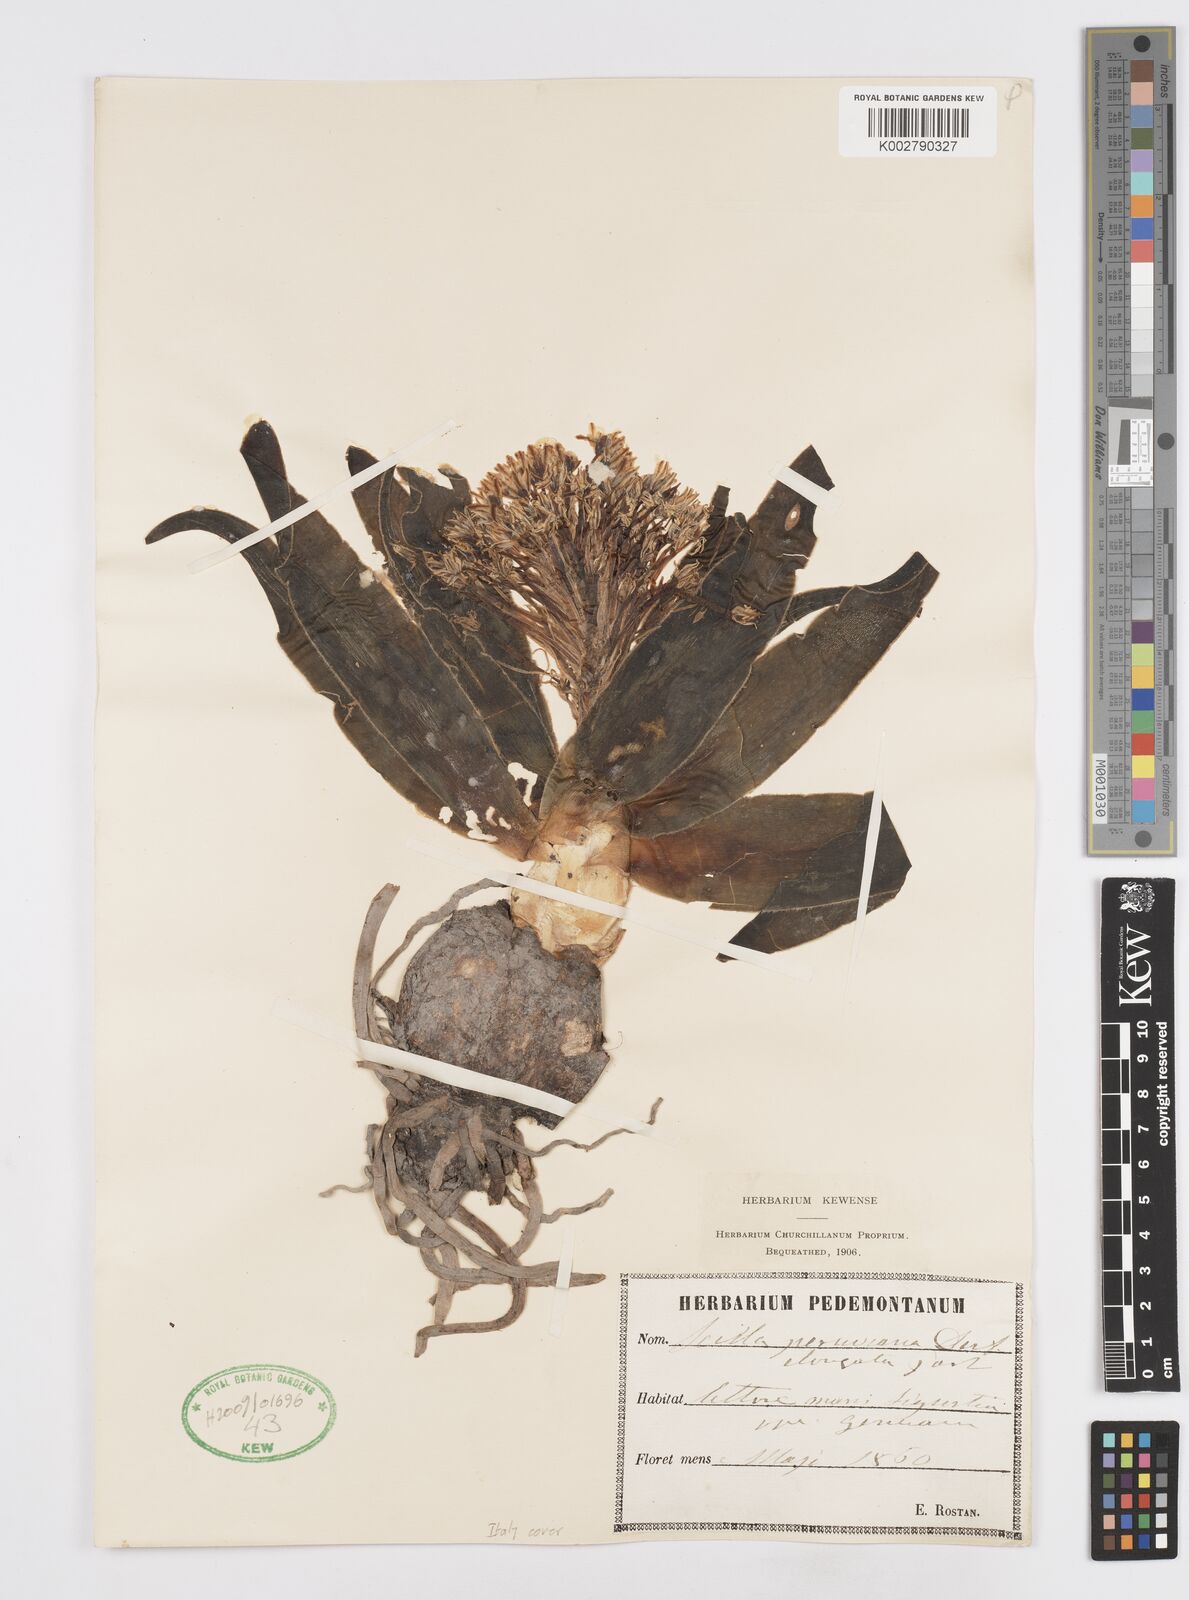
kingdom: Plantae
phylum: Tracheophyta
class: Liliopsida
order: Asparagales
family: Asparagaceae
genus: Scilla
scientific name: Scilla peruviana
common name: Portuguese squill
